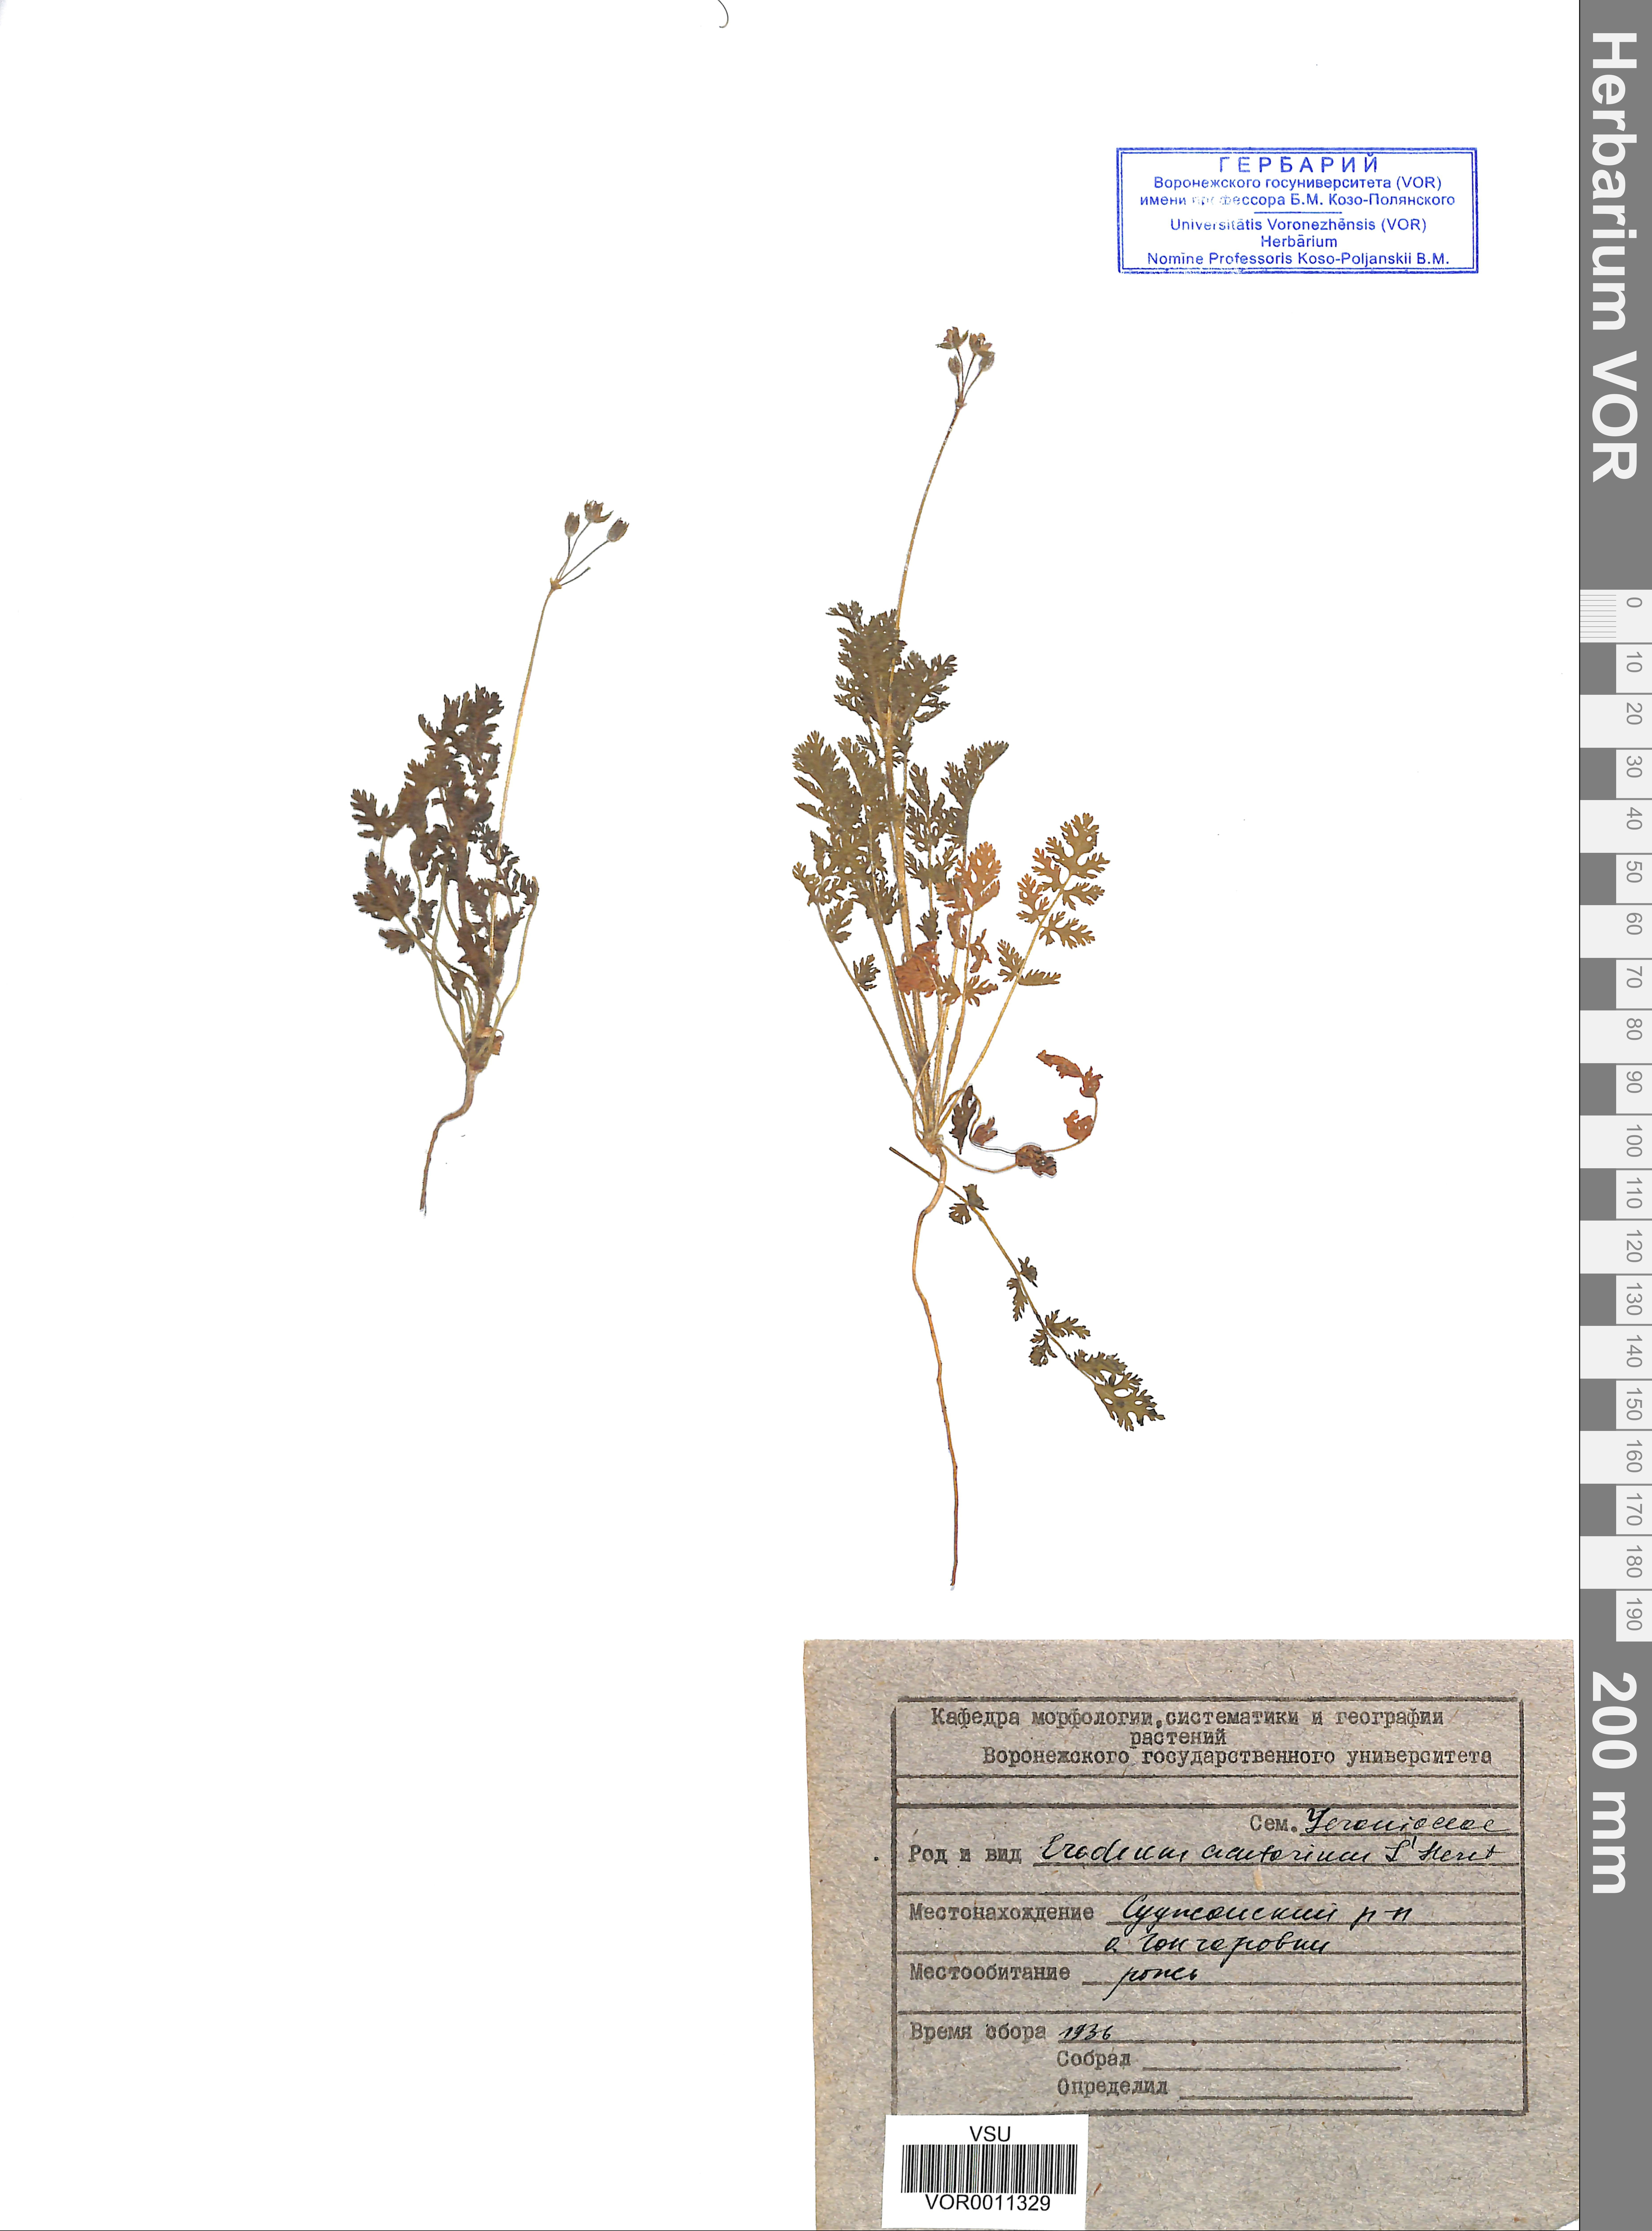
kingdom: Plantae
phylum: Tracheophyta
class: Magnoliopsida
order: Geraniales
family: Geraniaceae
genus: Erodium
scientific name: Erodium cicutarium
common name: Common stork's-bill
